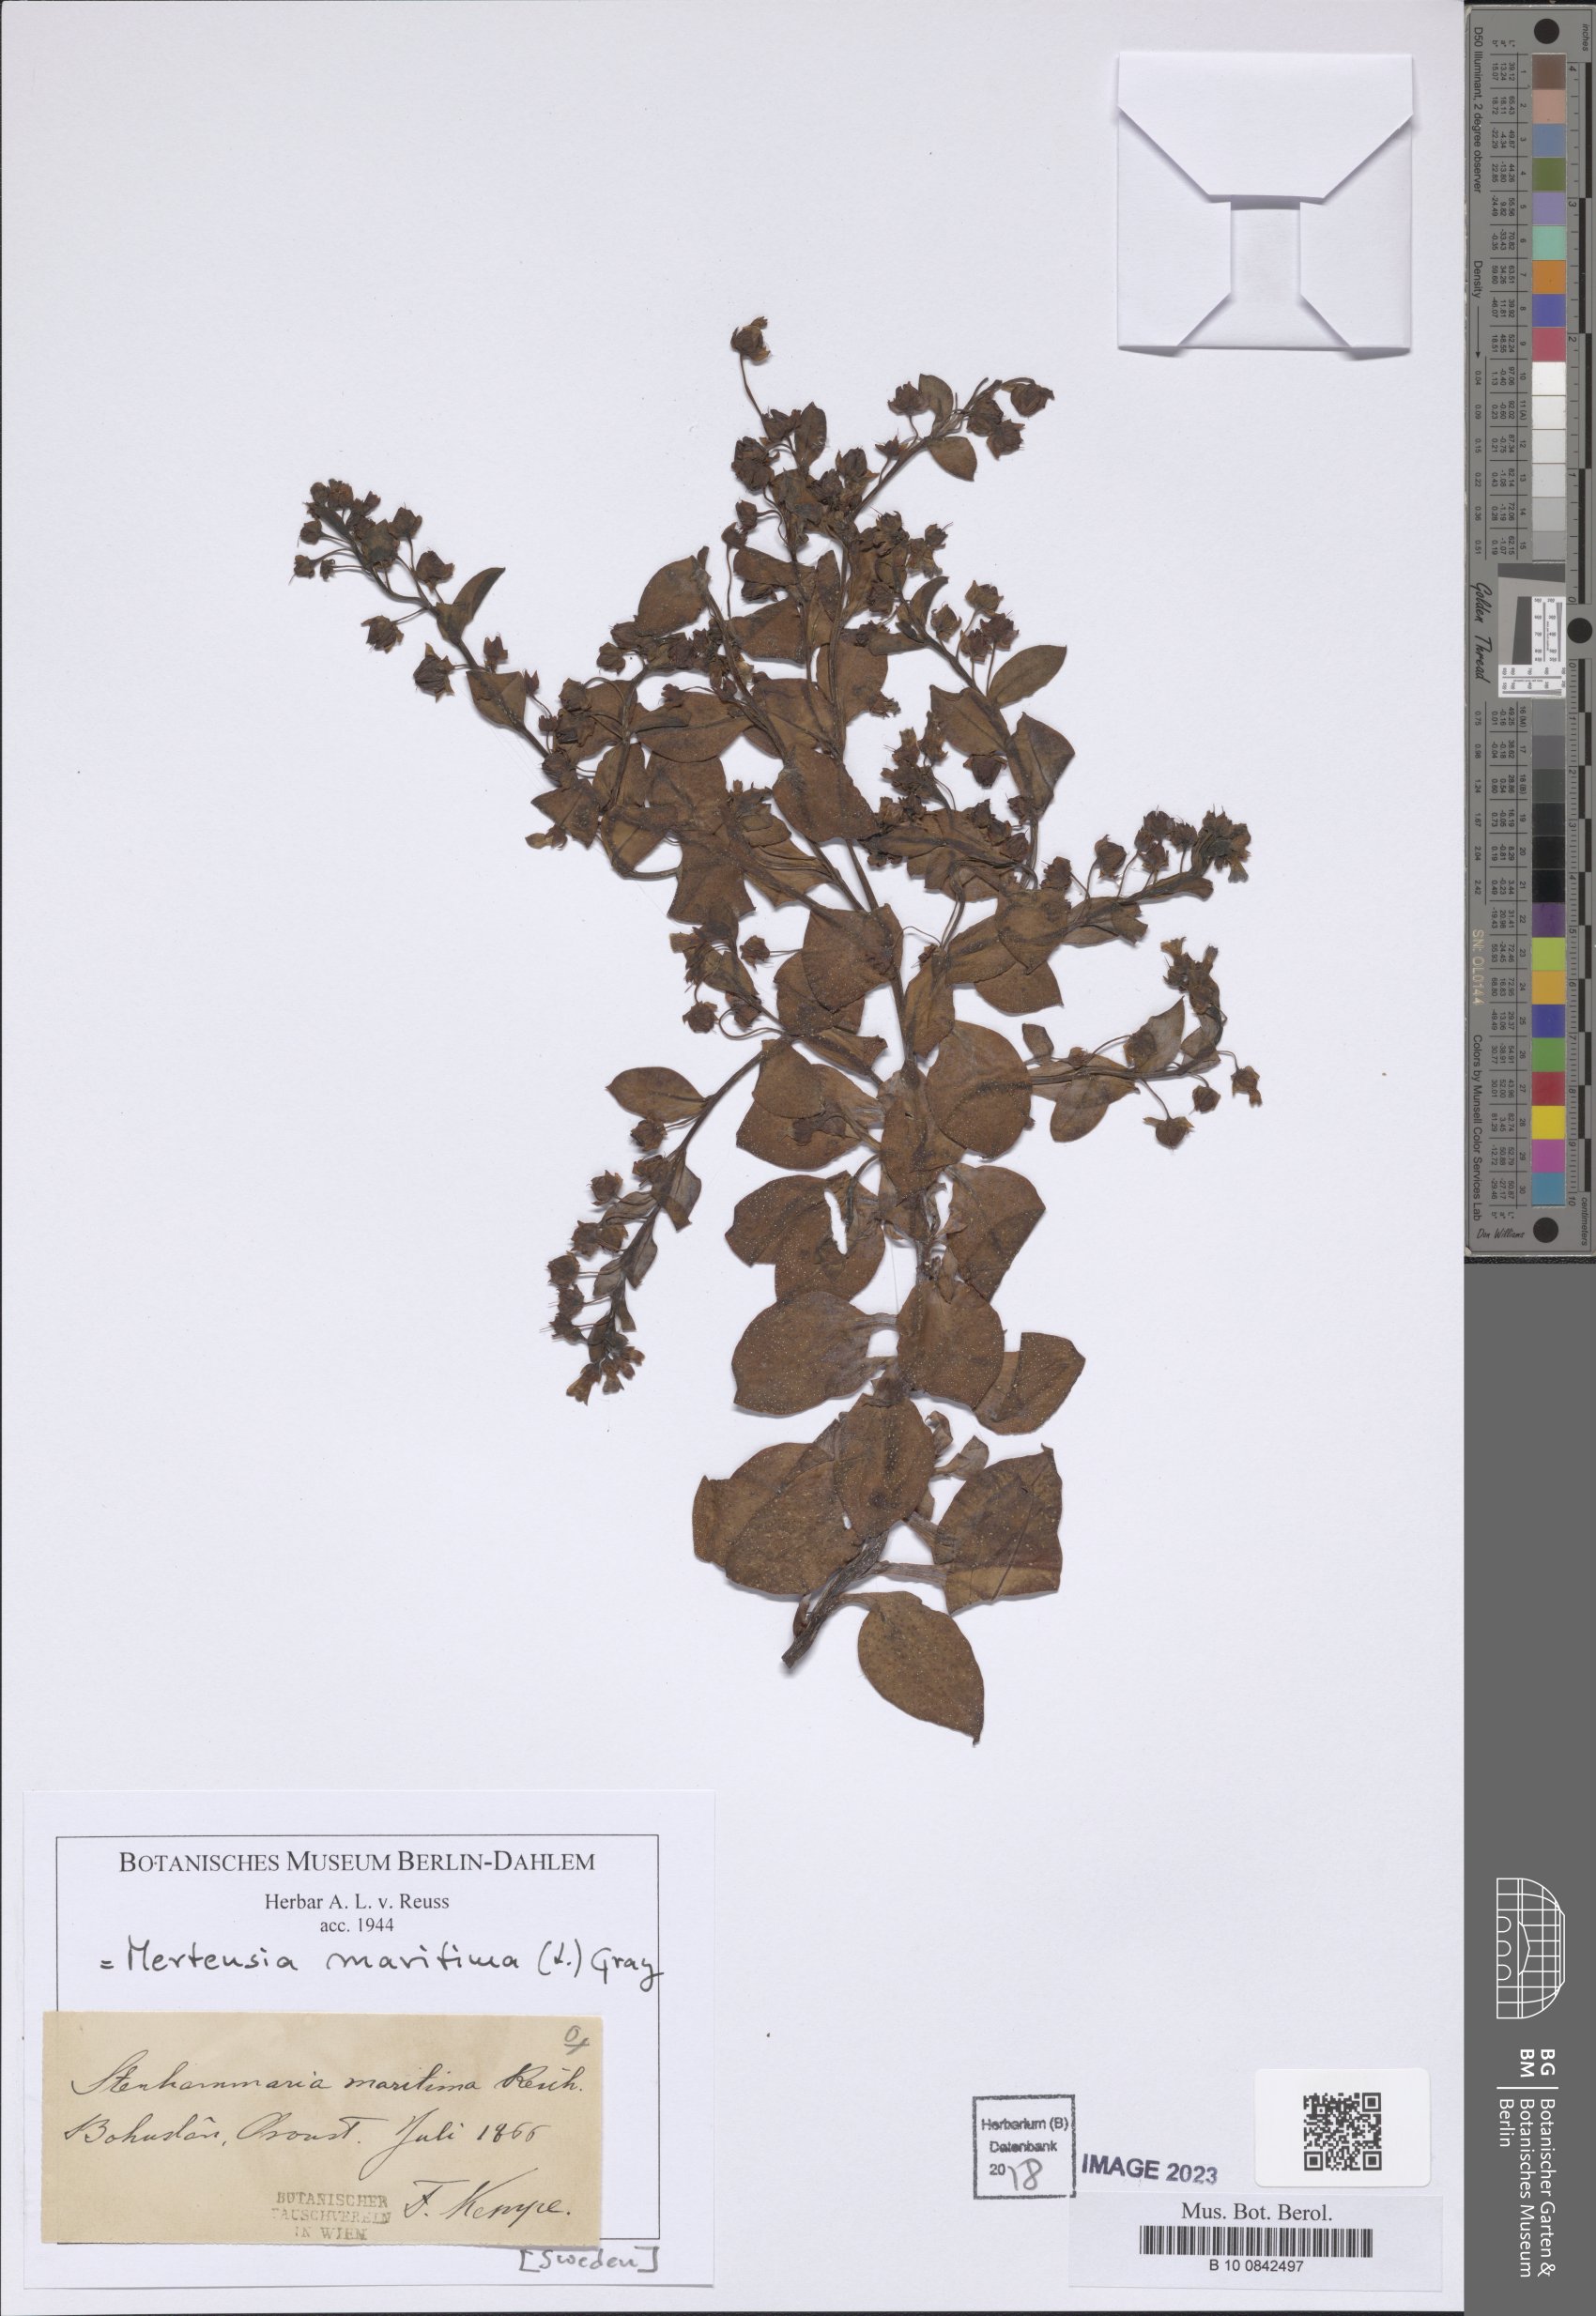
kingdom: Plantae
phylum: Tracheophyta
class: Magnoliopsida
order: Boraginales
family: Boraginaceae
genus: Mertensia
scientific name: Mertensia maritima
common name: Oysterplant
